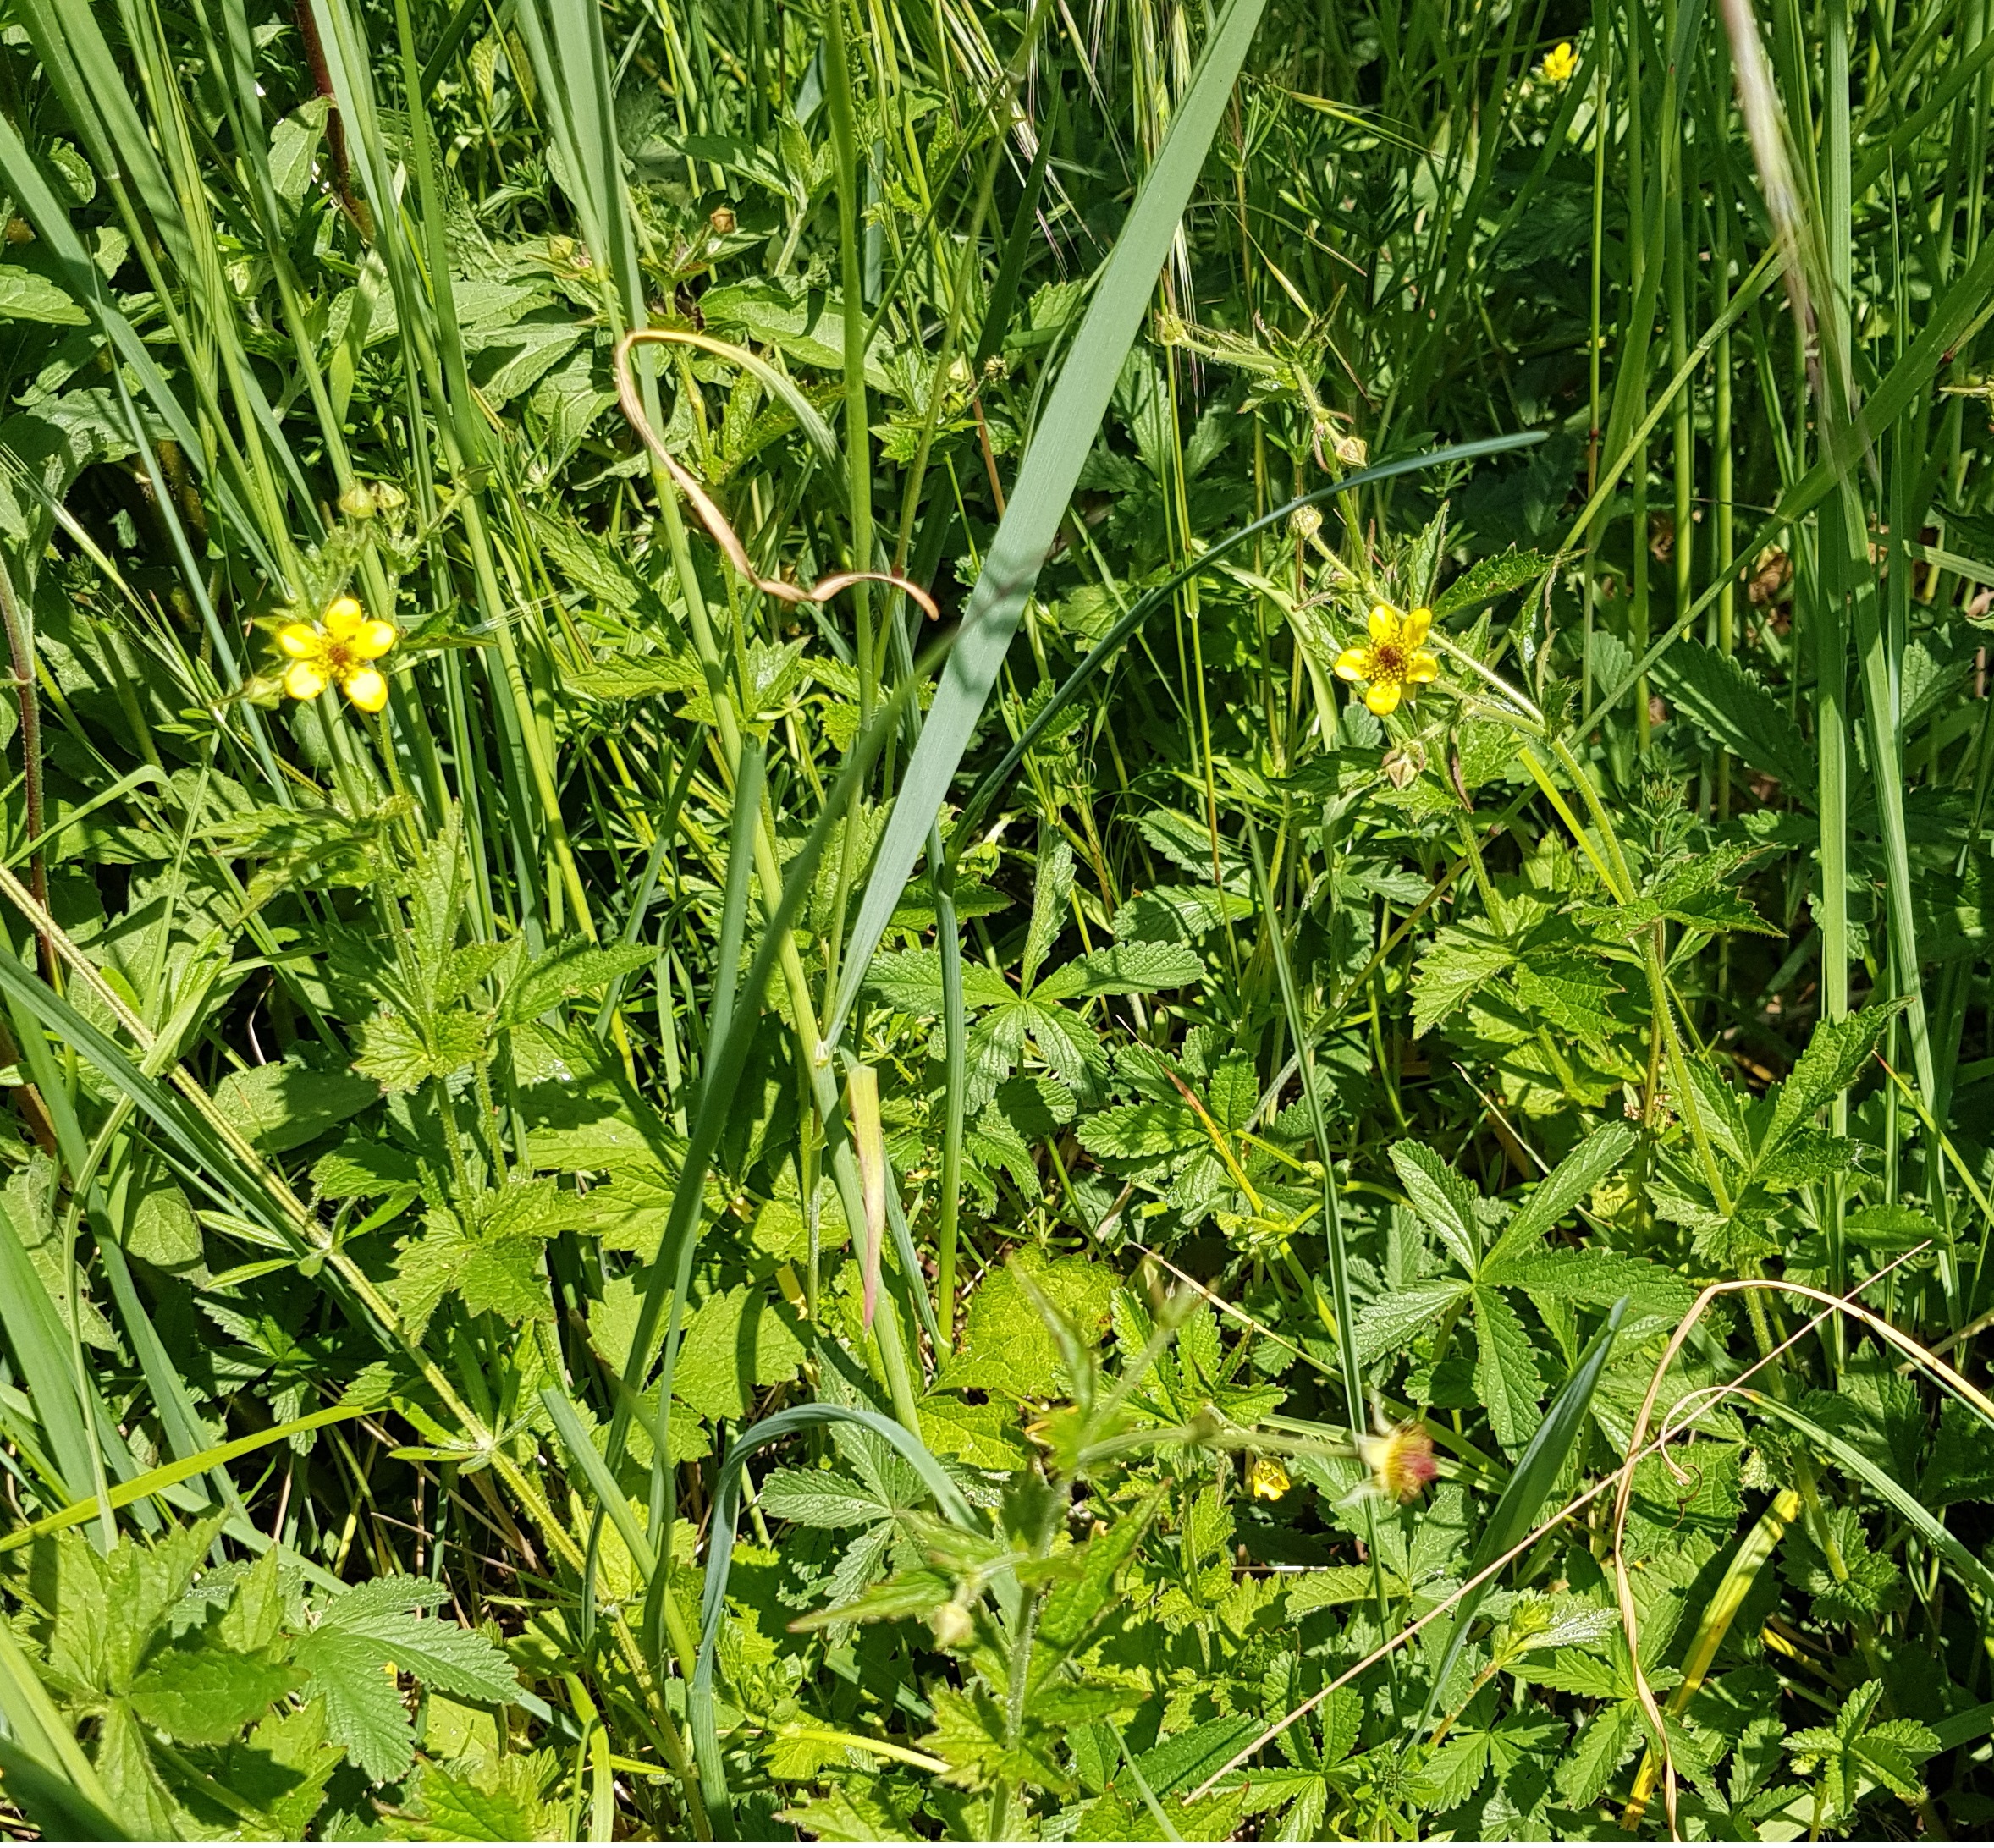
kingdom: Plantae
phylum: Tracheophyta
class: Magnoliopsida
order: Rosales
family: Rosaceae
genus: Geum
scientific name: Geum urbanum
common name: Feber-nellikerod
